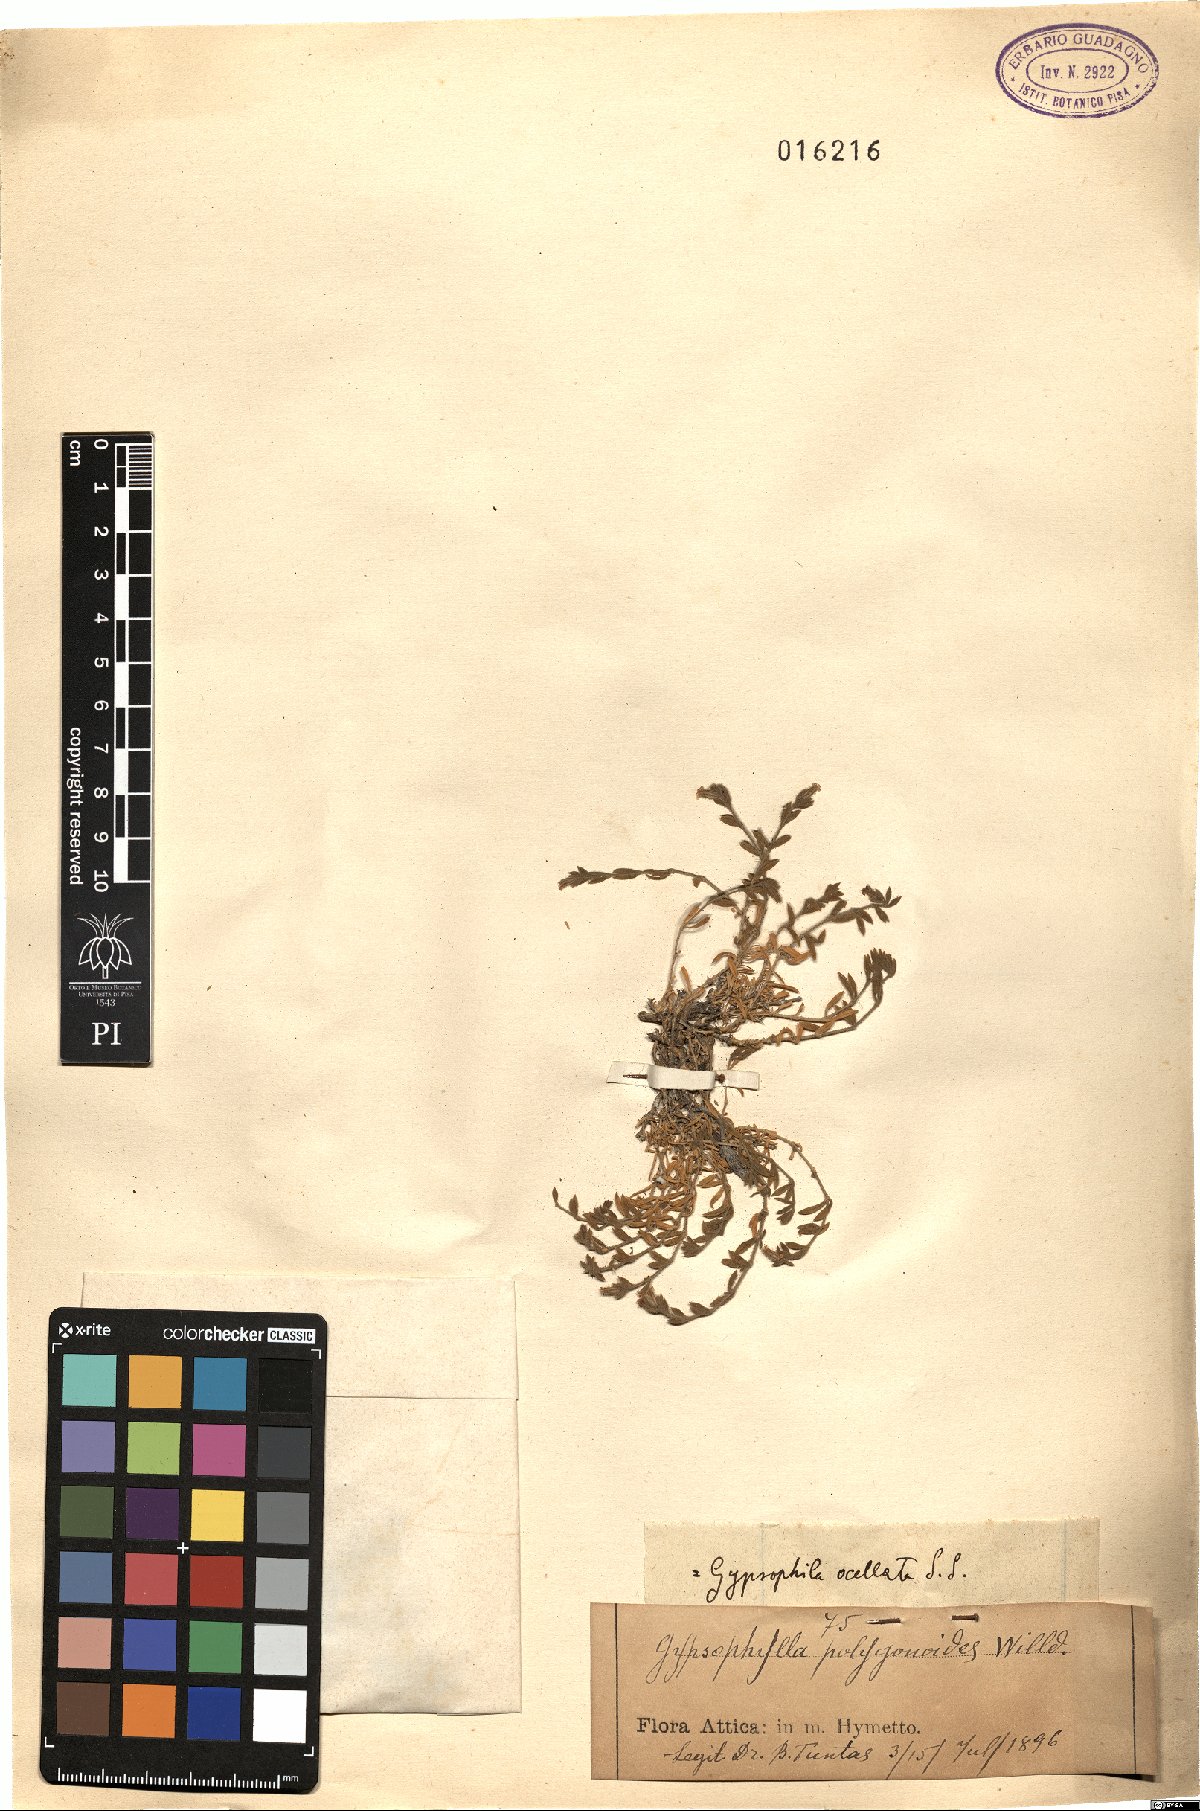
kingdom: Plantae
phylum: Tracheophyta
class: Magnoliopsida
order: Caryophyllales
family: Caryophyllaceae
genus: Graecobolanthus
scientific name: Graecobolanthus graecus
